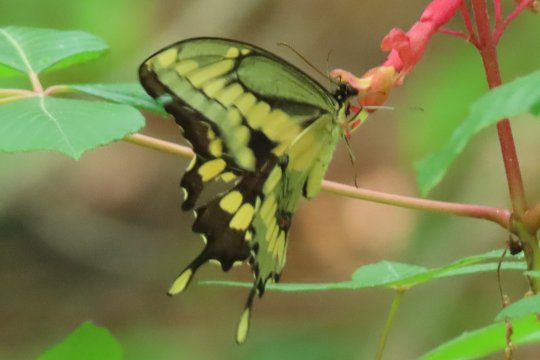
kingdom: Animalia
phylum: Arthropoda
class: Insecta
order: Lepidoptera
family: Papilionidae
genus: Papilio
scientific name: Papilio cresphontes
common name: Eastern Giant Swallowtail
